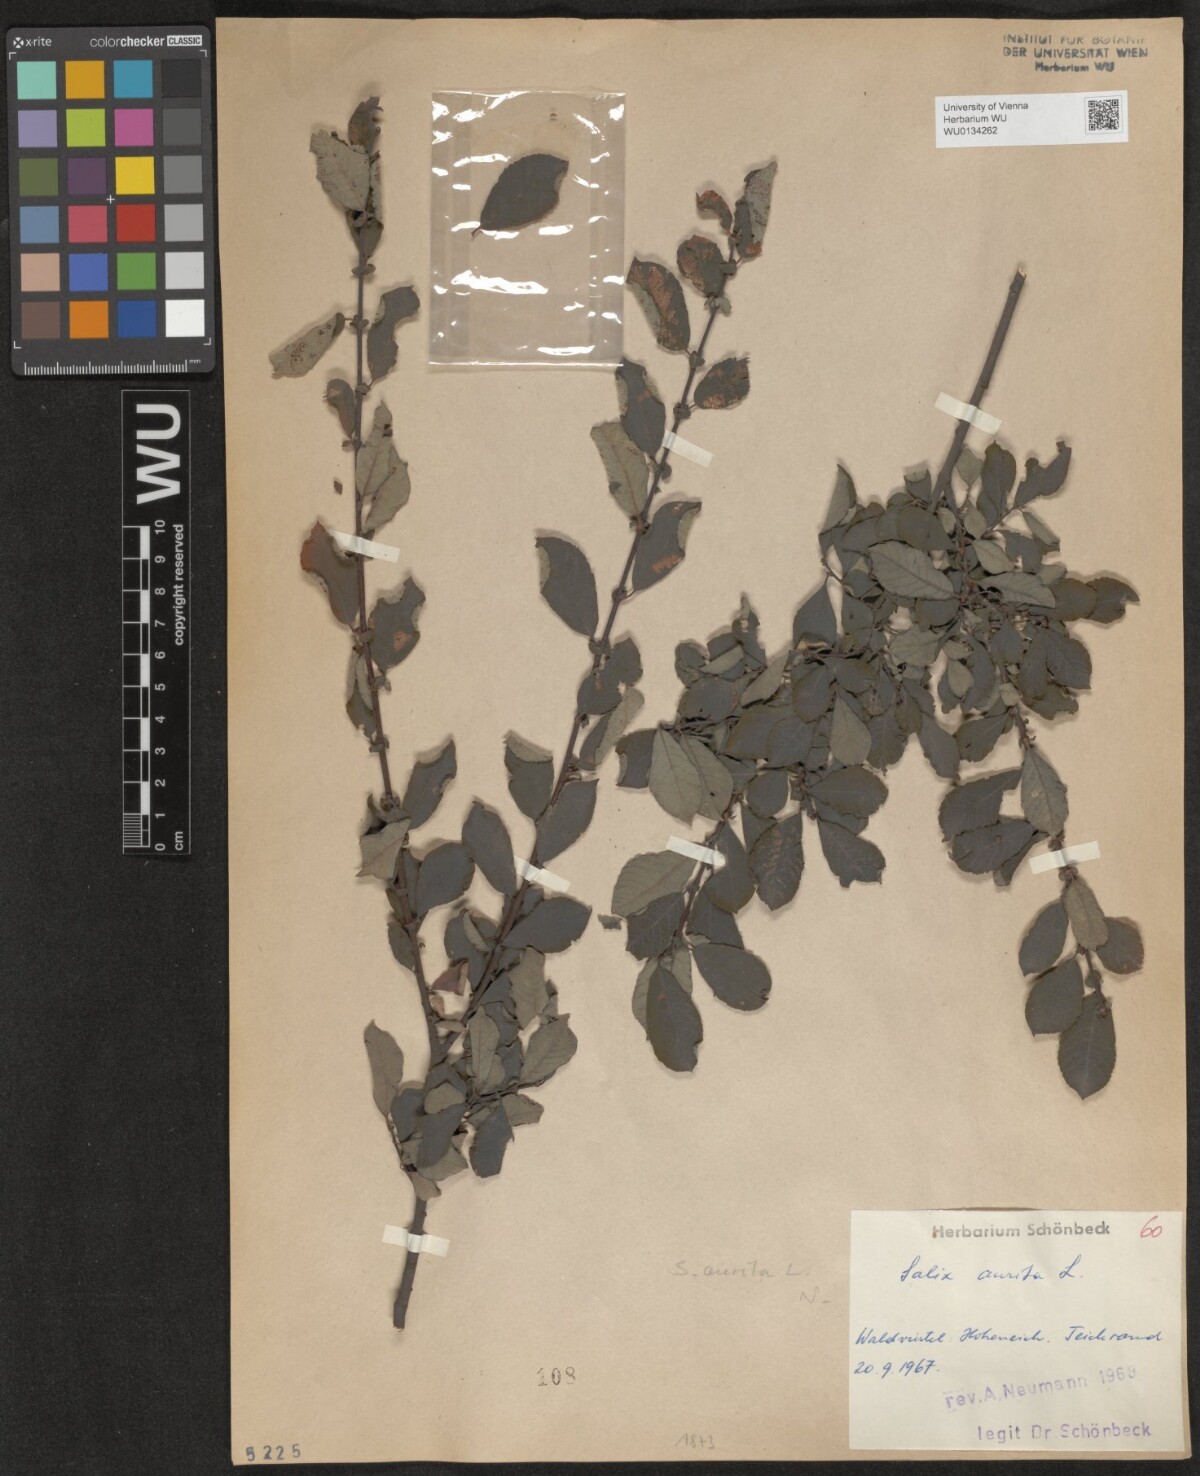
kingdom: Plantae
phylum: Tracheophyta
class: Magnoliopsida
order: Malpighiales
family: Salicaceae
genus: Salix
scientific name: Salix aurita
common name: Eared willow
